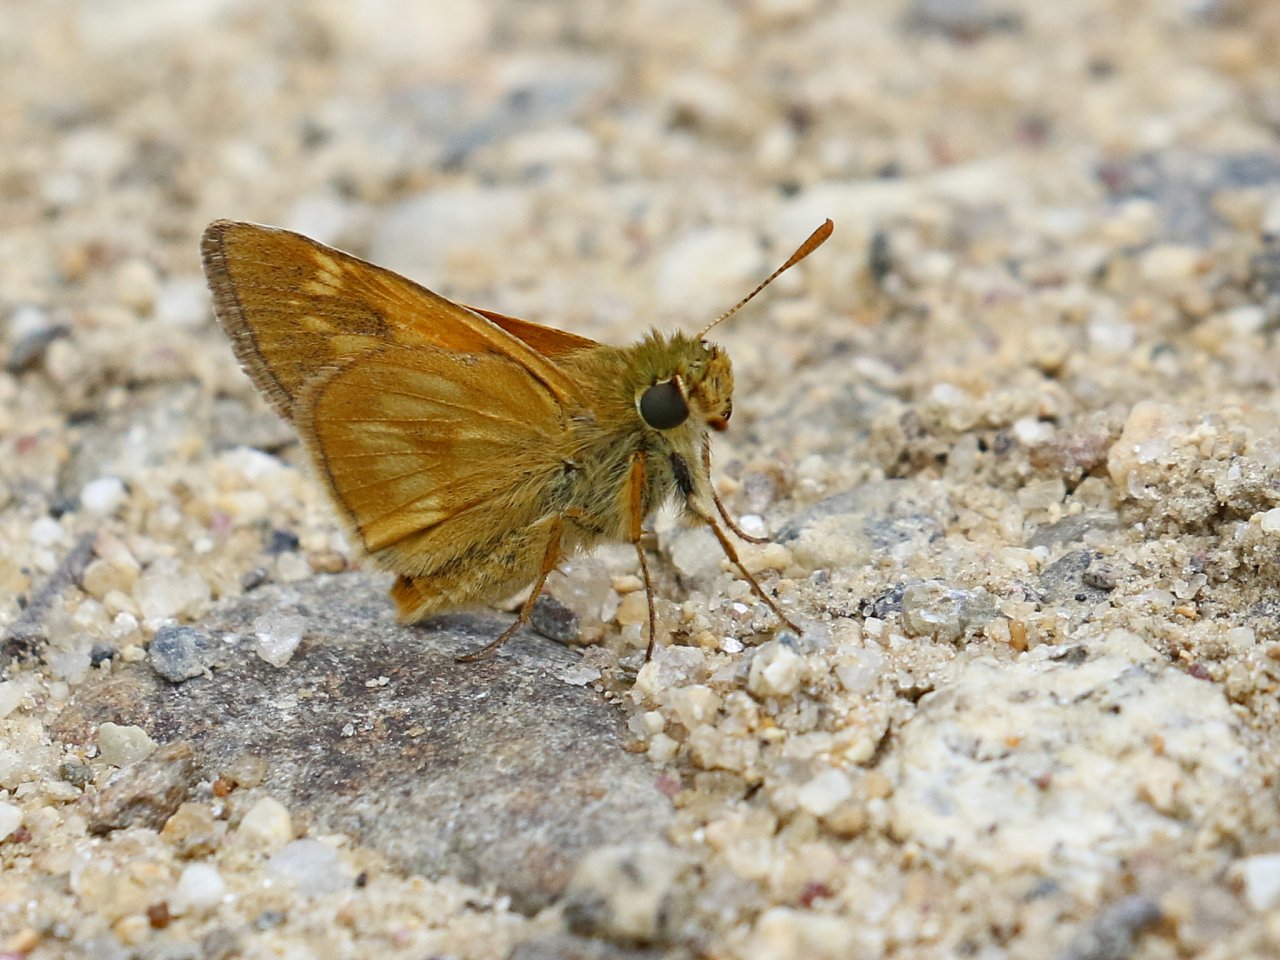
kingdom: Animalia
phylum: Arthropoda
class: Insecta
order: Lepidoptera
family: Hesperiidae
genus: Polites
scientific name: Polites
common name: Long Dash Skipper
